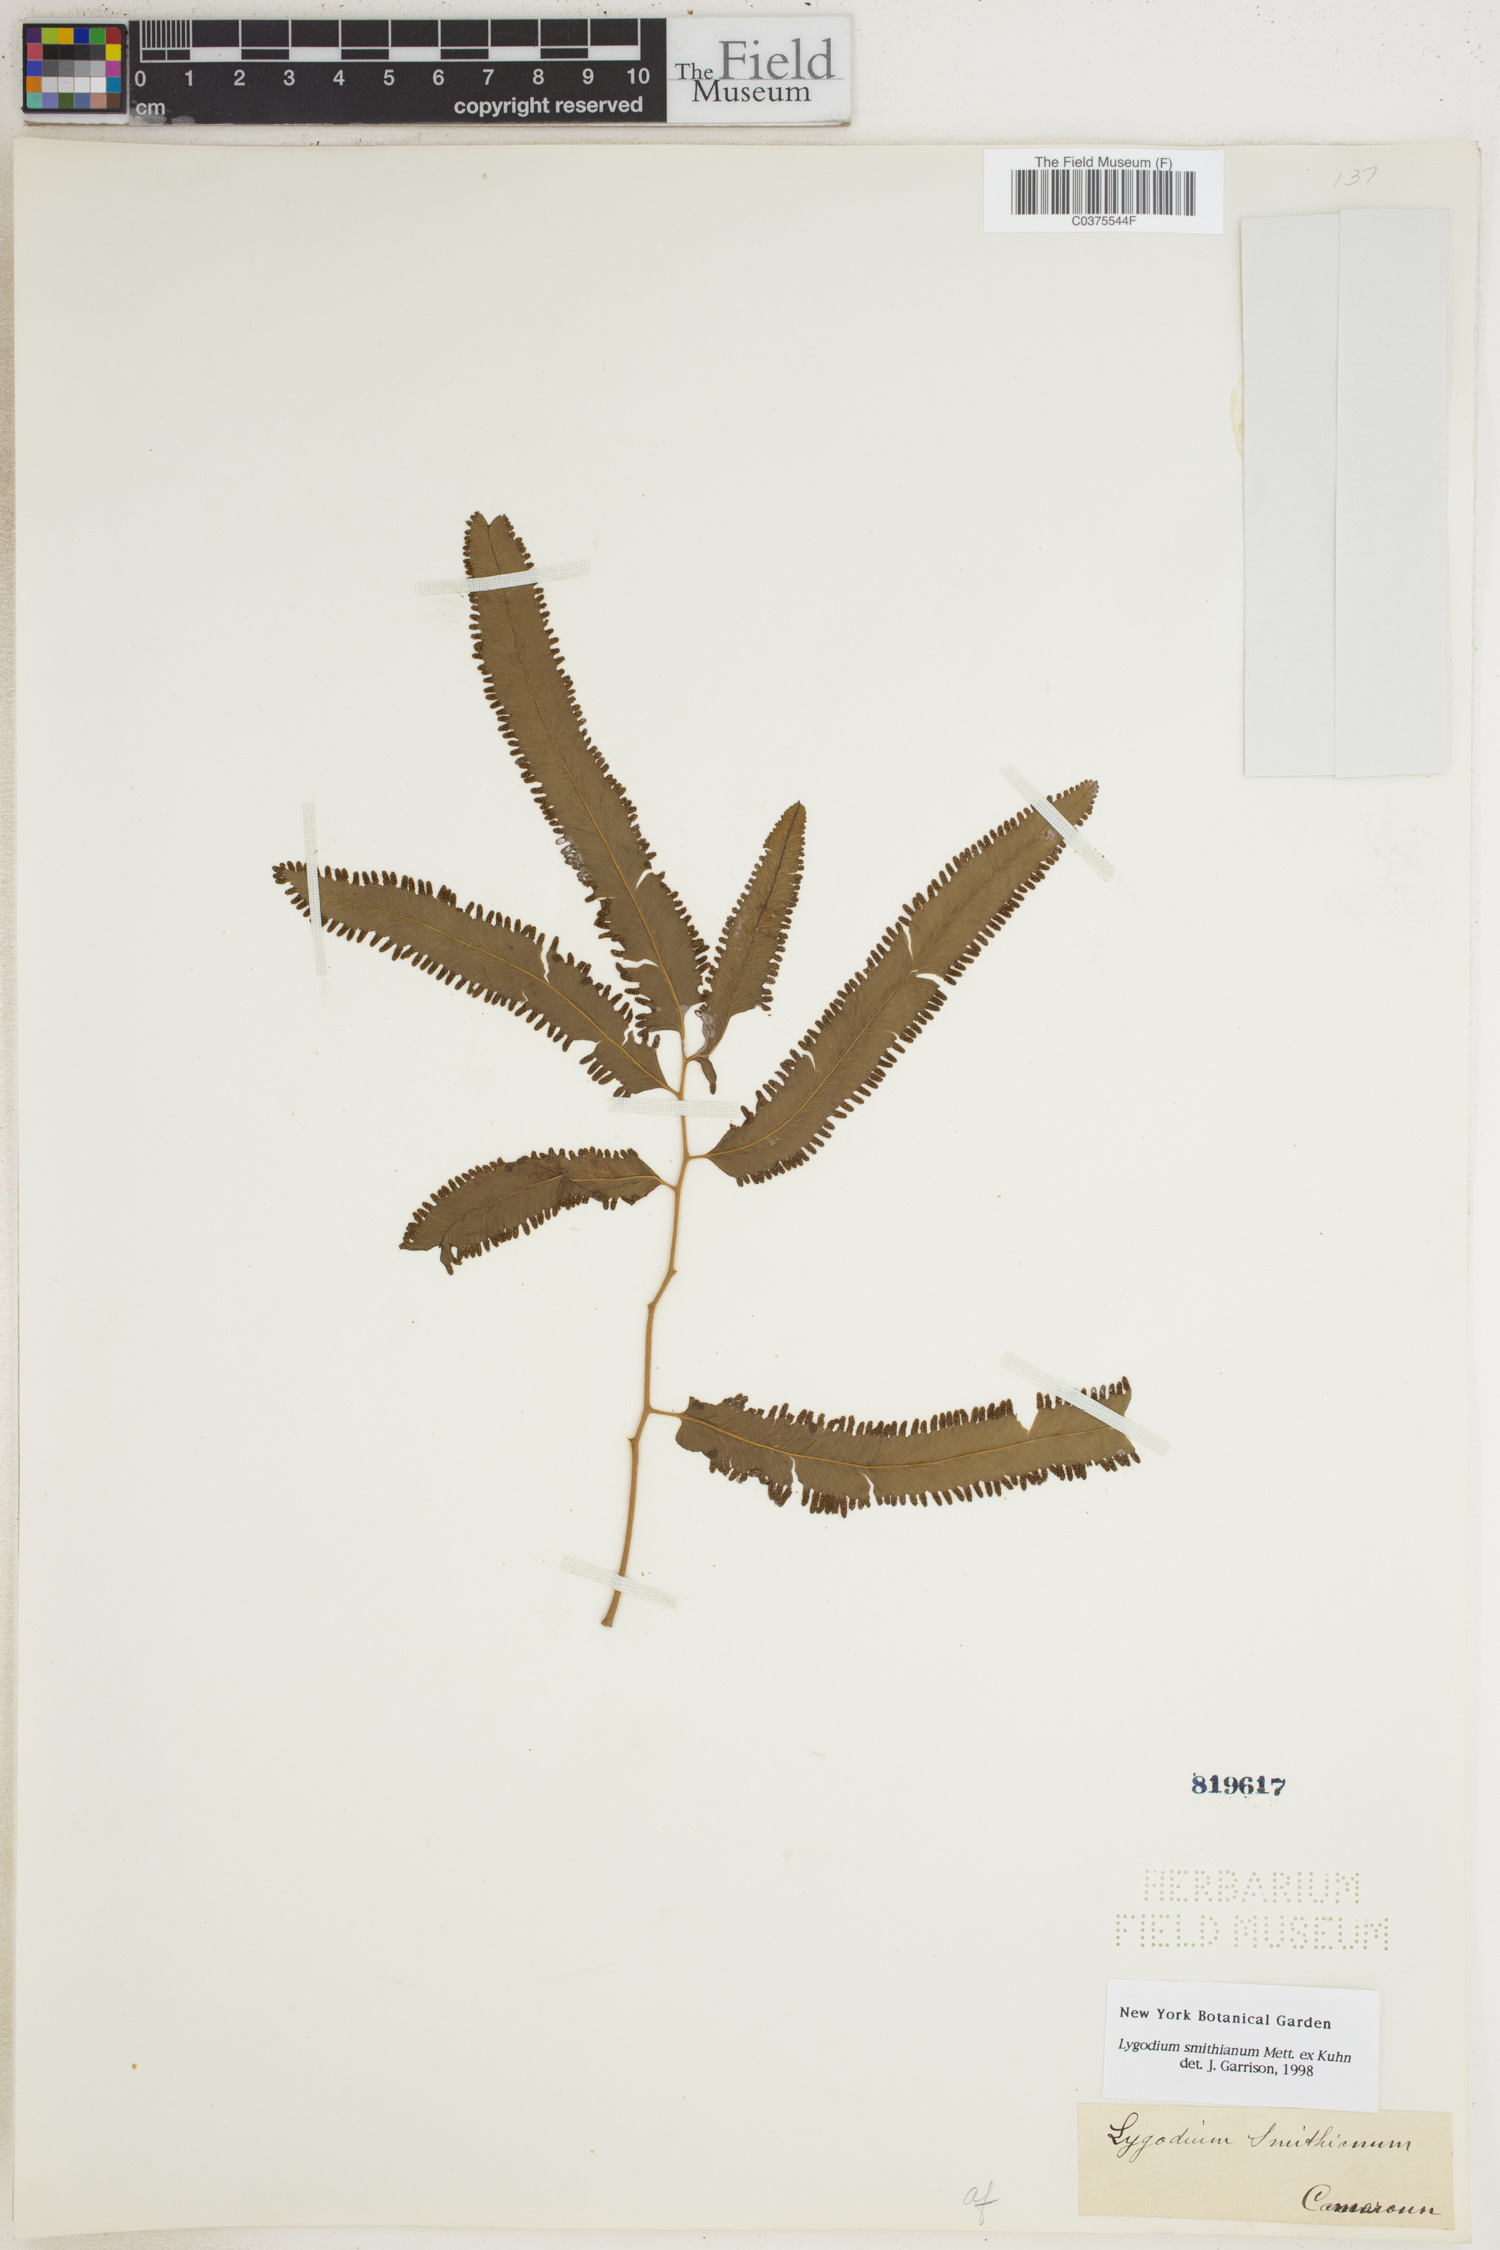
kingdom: Plantae
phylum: Tracheophyta
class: Polypodiopsida
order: Schizaeales
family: Lygodiaceae
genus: Lygodium
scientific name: Lygodium smithianum
